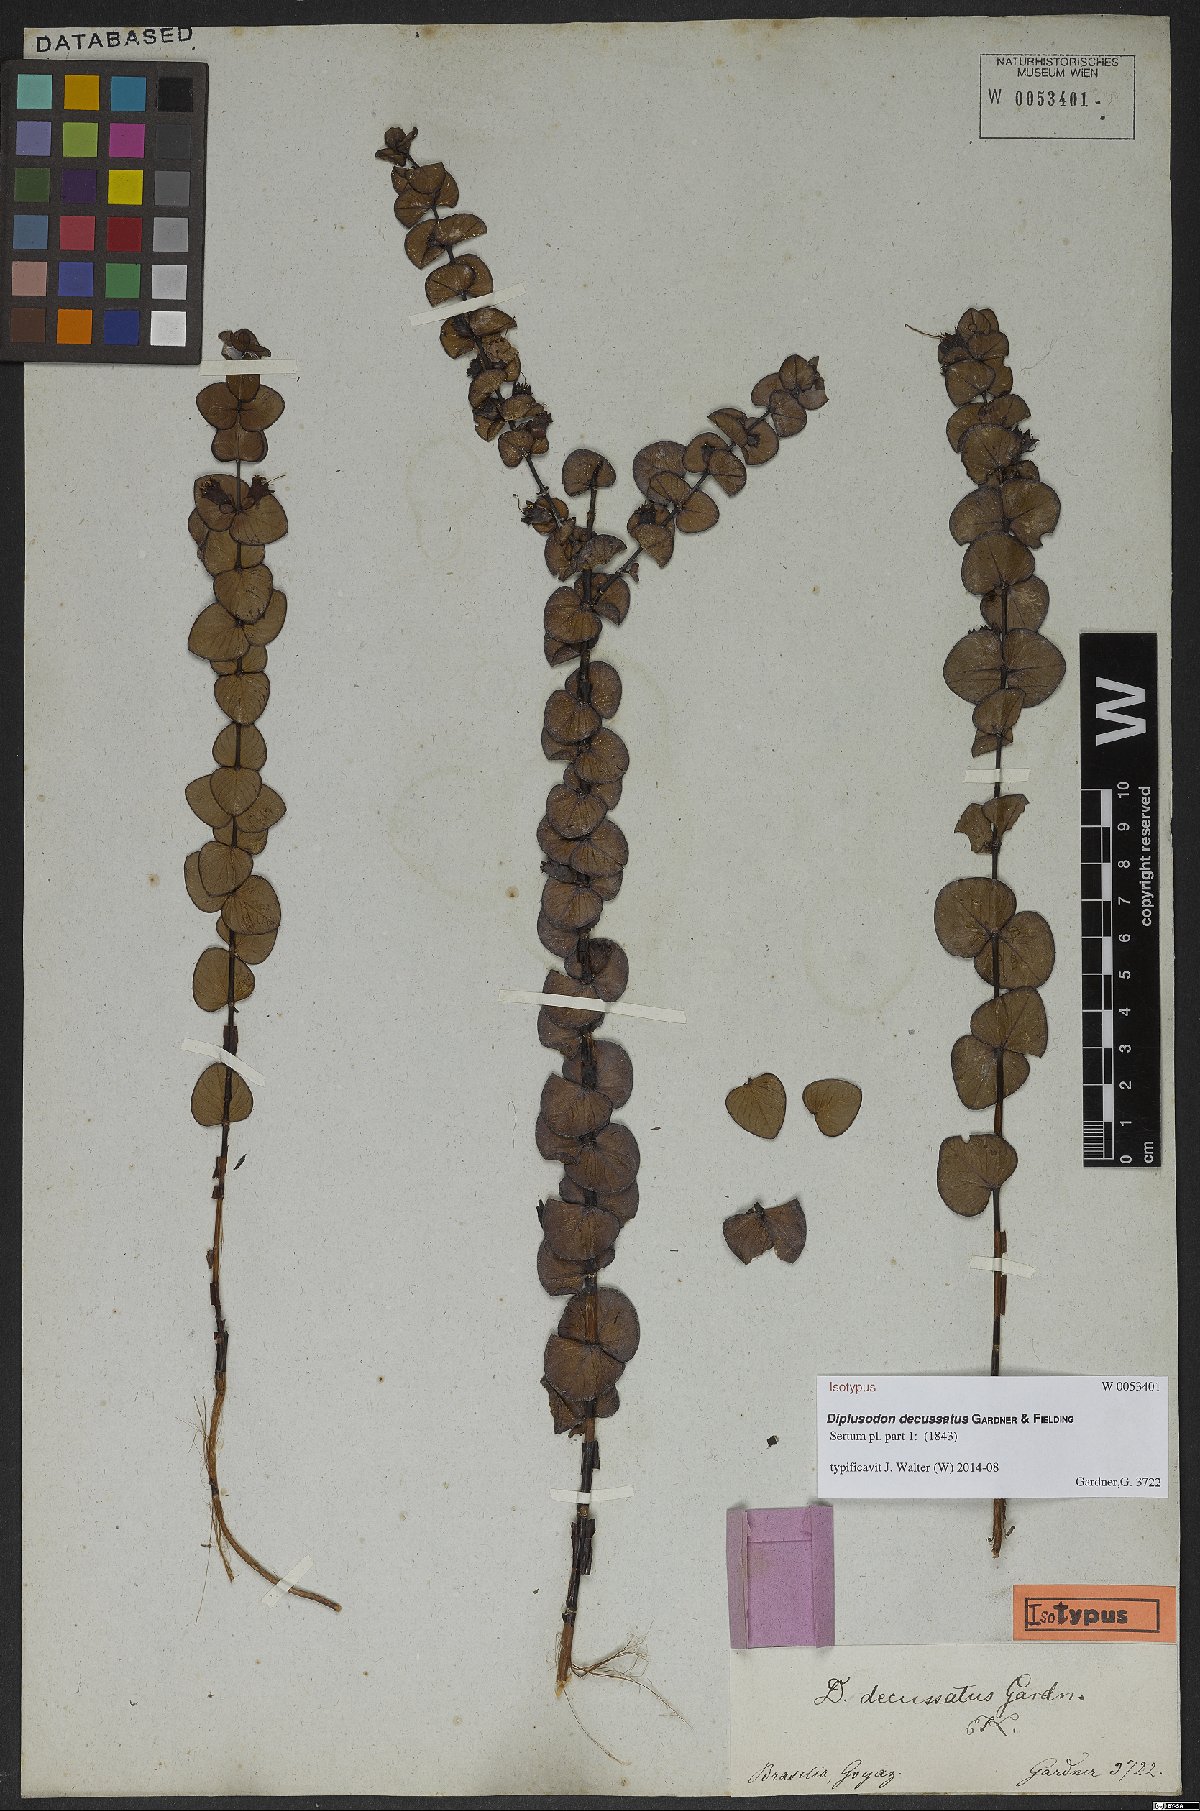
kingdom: Plantae
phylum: Tracheophyta
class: Magnoliopsida
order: Myrtales
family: Lythraceae
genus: Diplusodon
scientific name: Diplusodon decussatus
